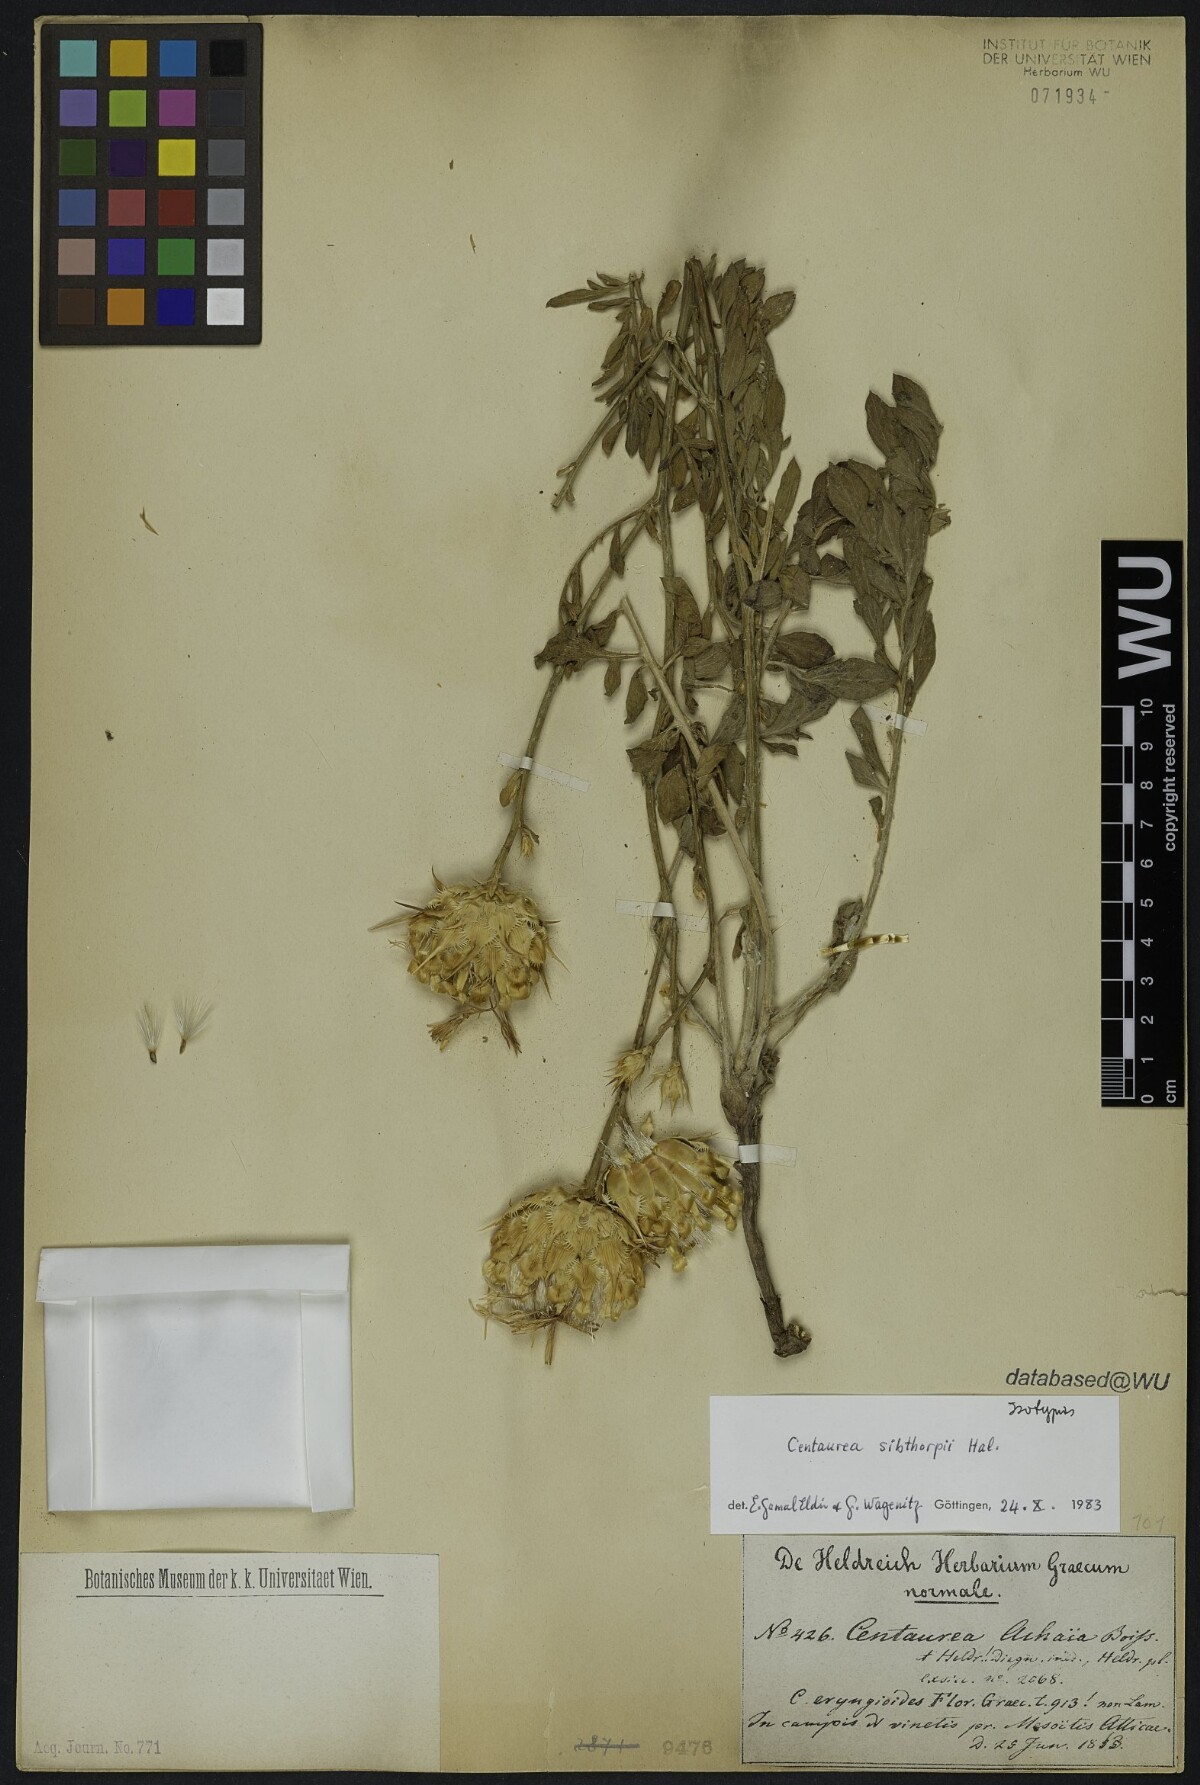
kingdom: Plantae
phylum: Tracheophyta
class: Magnoliopsida
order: Asterales
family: Asteraceae
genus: Centaurea
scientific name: Centaurea achaia
